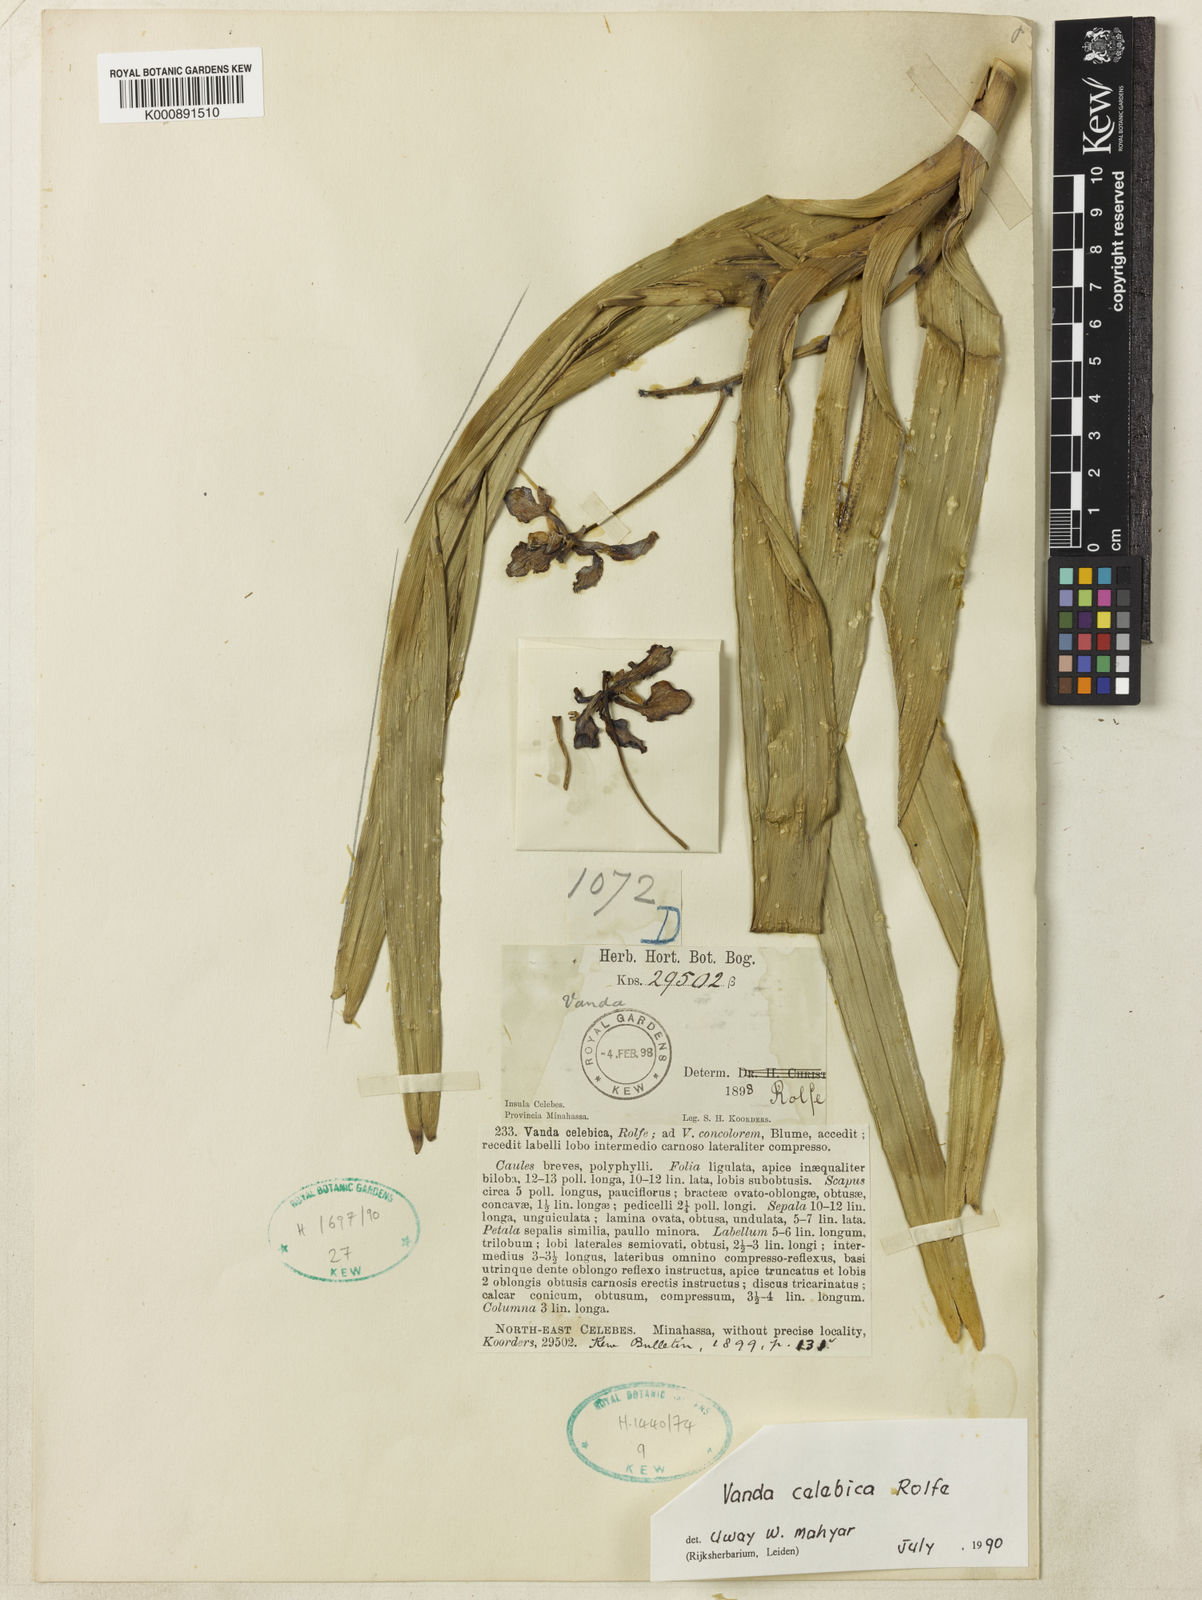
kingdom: Plantae
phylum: Tracheophyta
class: Liliopsida
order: Asparagales
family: Orchidaceae
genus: Vanda
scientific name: Vanda celebica
